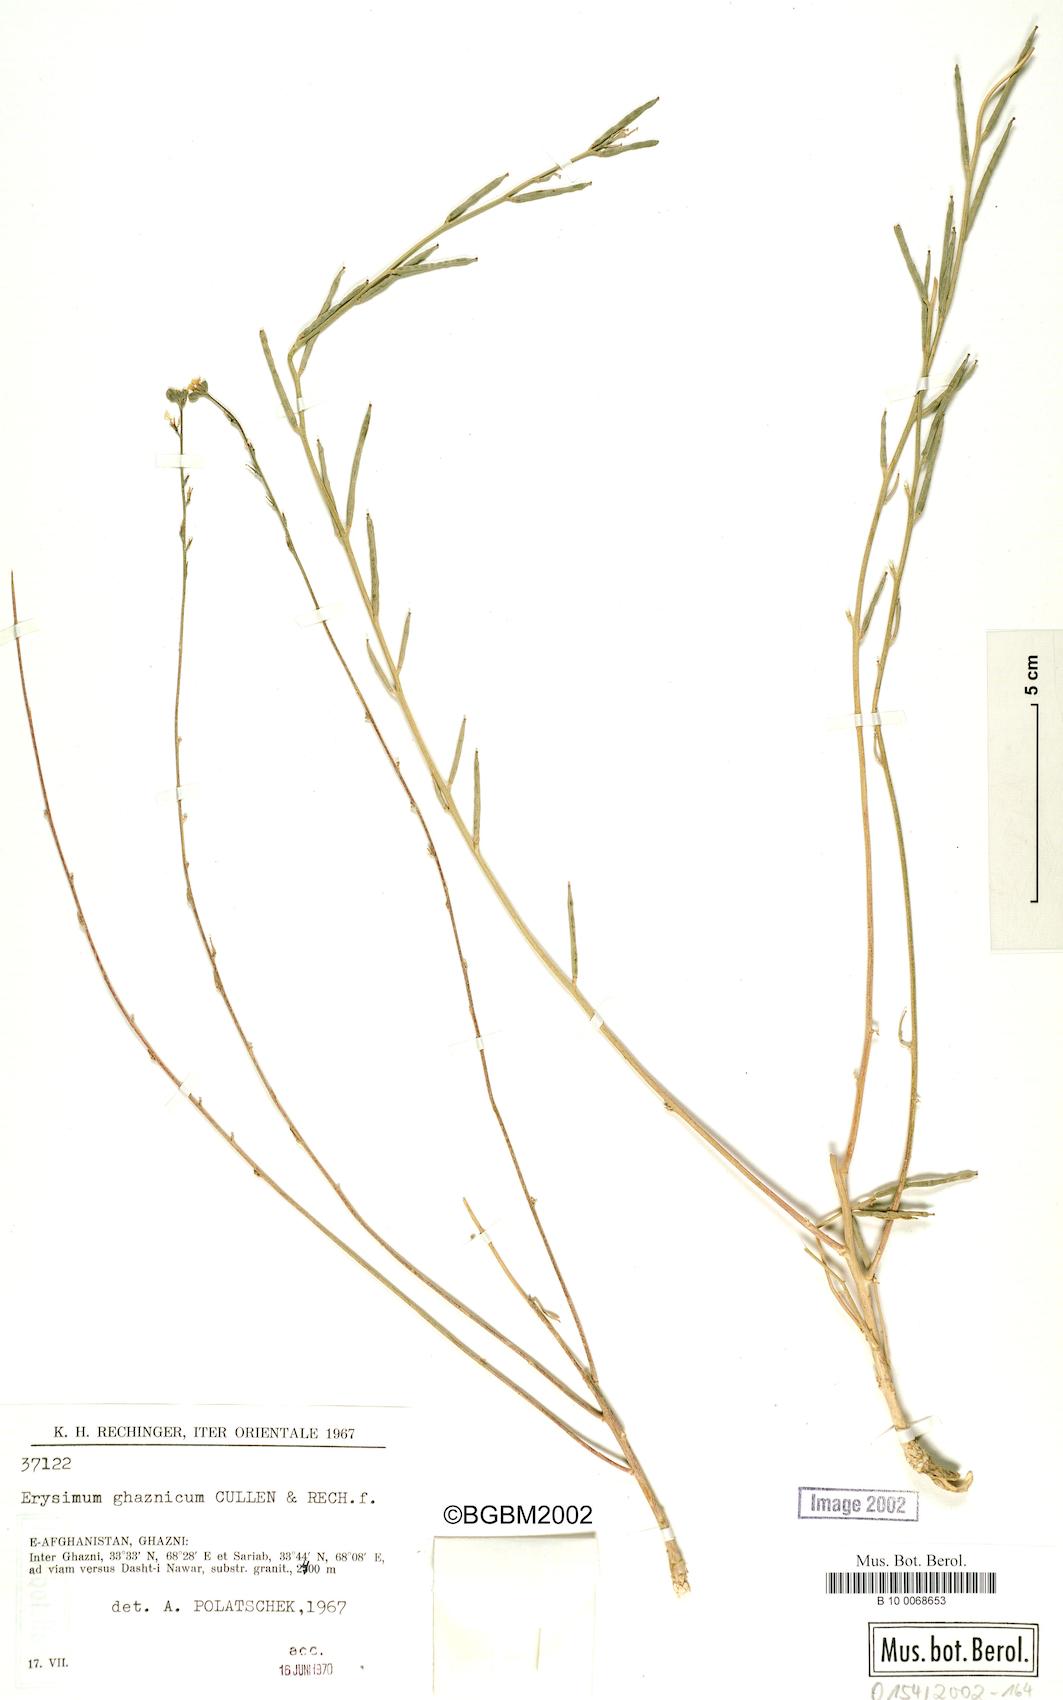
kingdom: Plantae
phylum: Tracheophyta
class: Magnoliopsida
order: Brassicales
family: Brassicaceae
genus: Erysimum
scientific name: Erysimum ghaznicum
